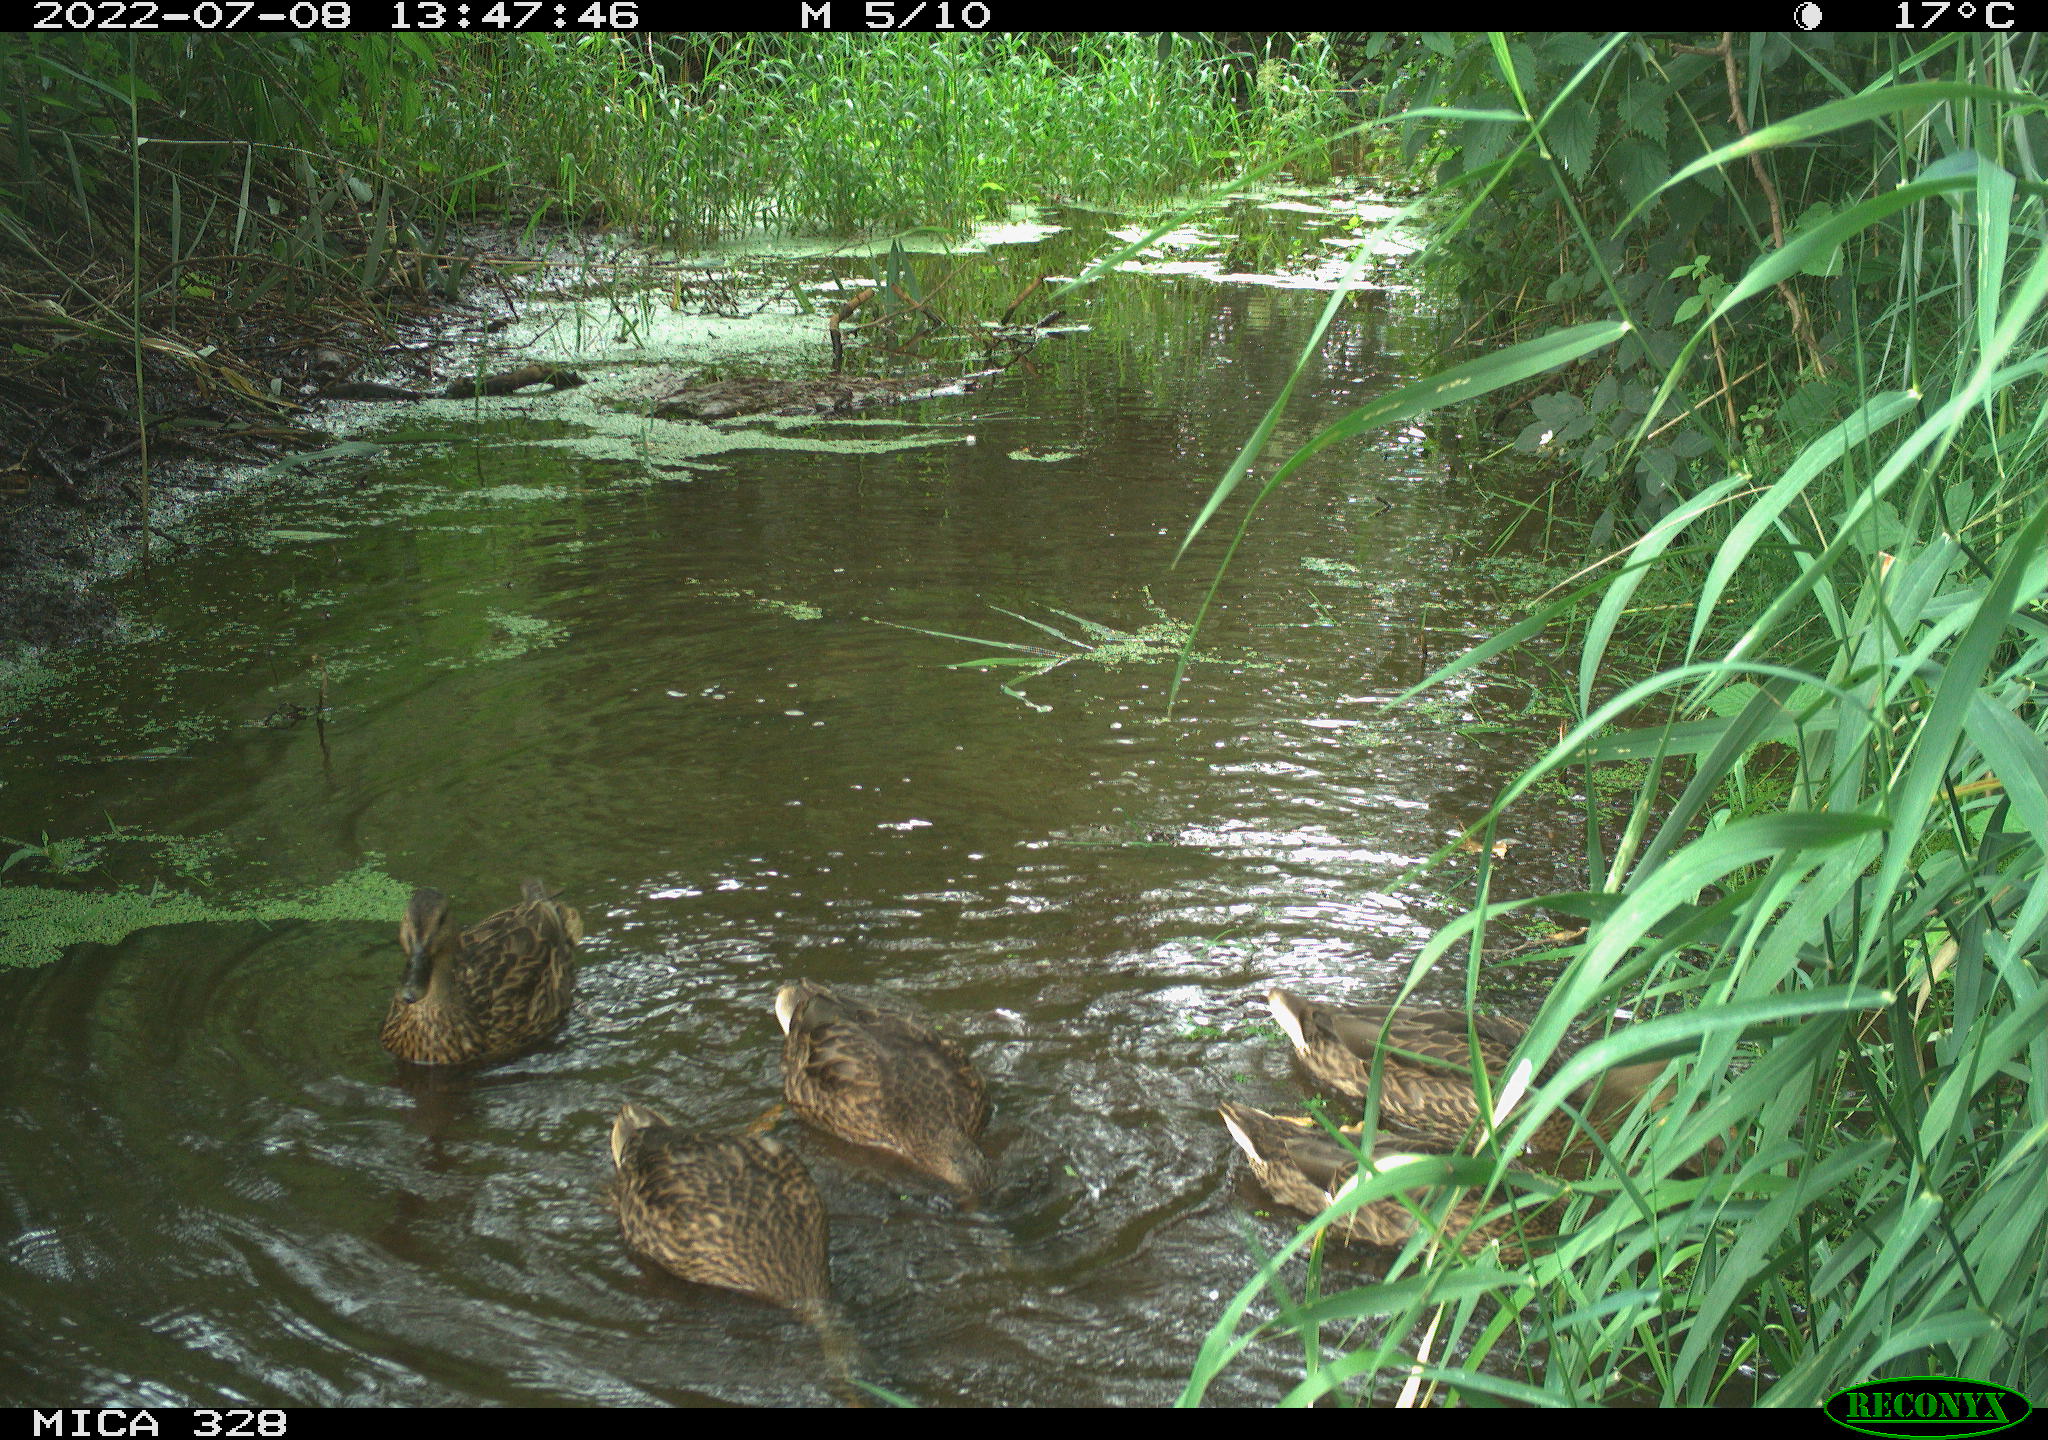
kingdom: Animalia
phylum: Chordata
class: Aves
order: Anseriformes
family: Anatidae
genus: Anas
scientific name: Anas
